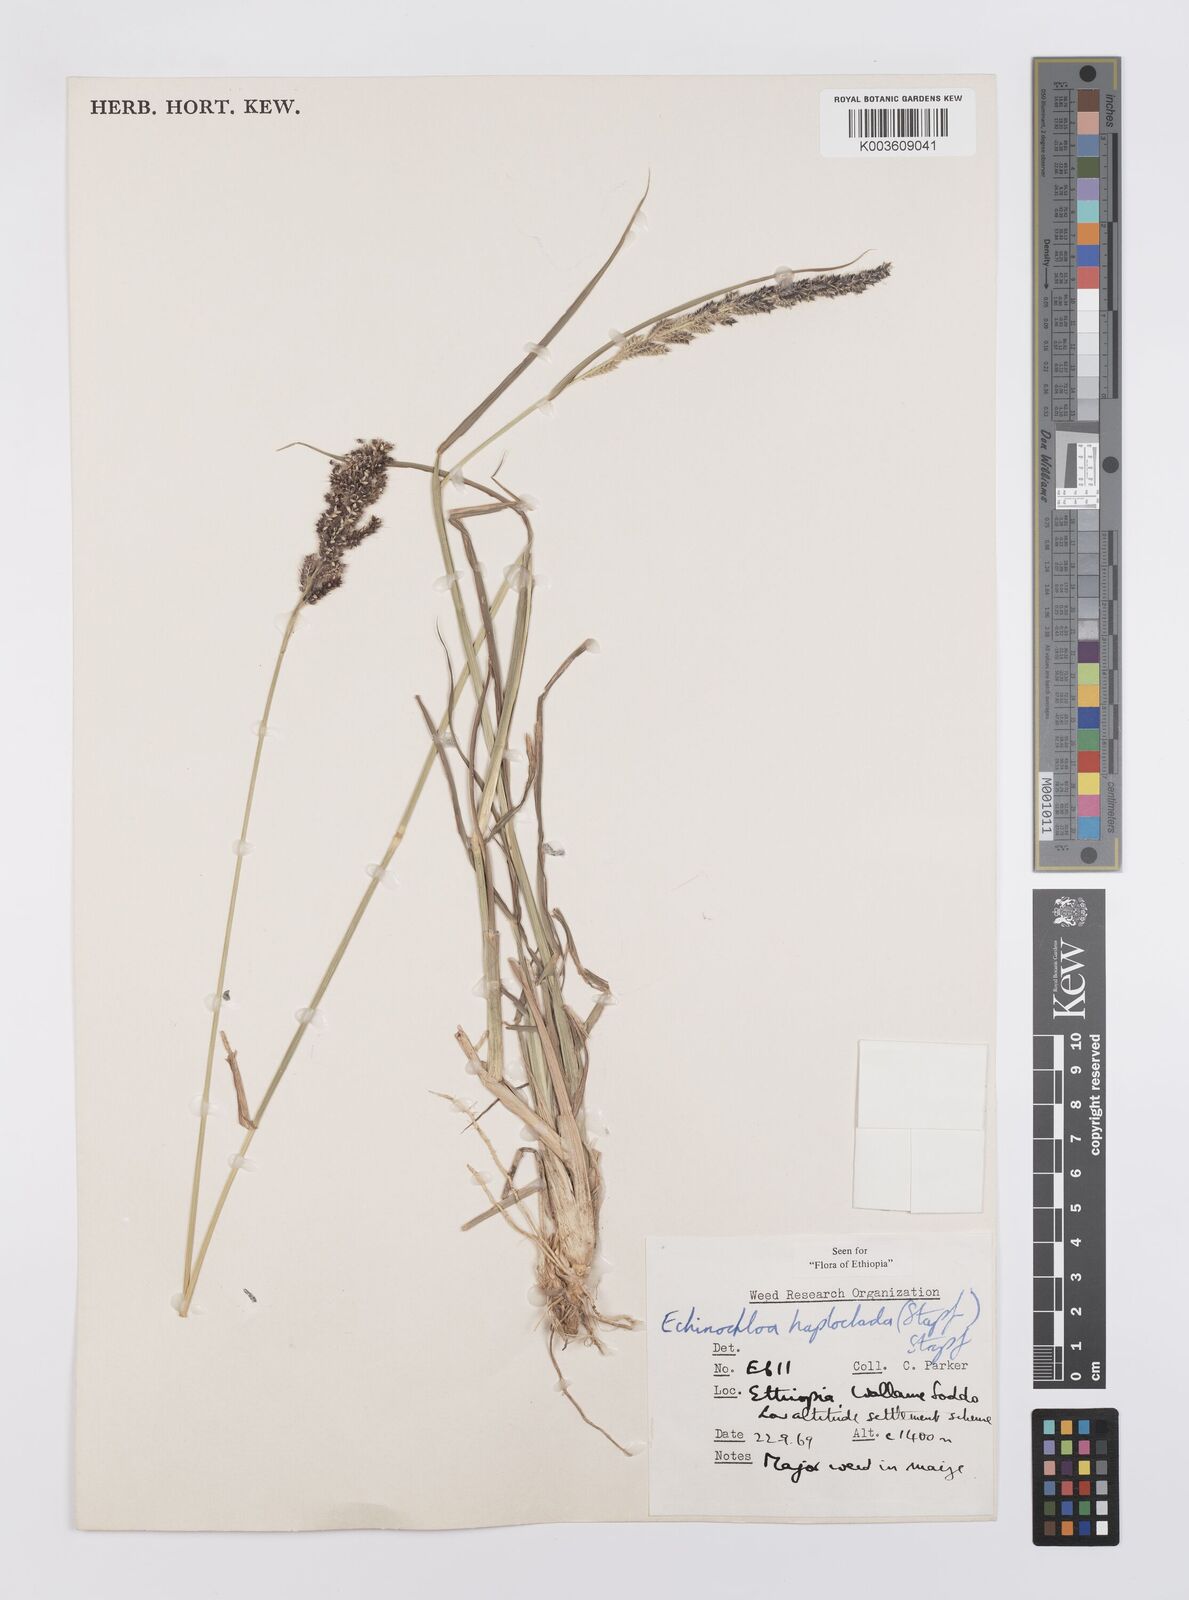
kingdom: Plantae
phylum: Tracheophyta
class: Liliopsida
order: Poales
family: Poaceae
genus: Echinochloa
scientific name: Echinochloa haploclada
